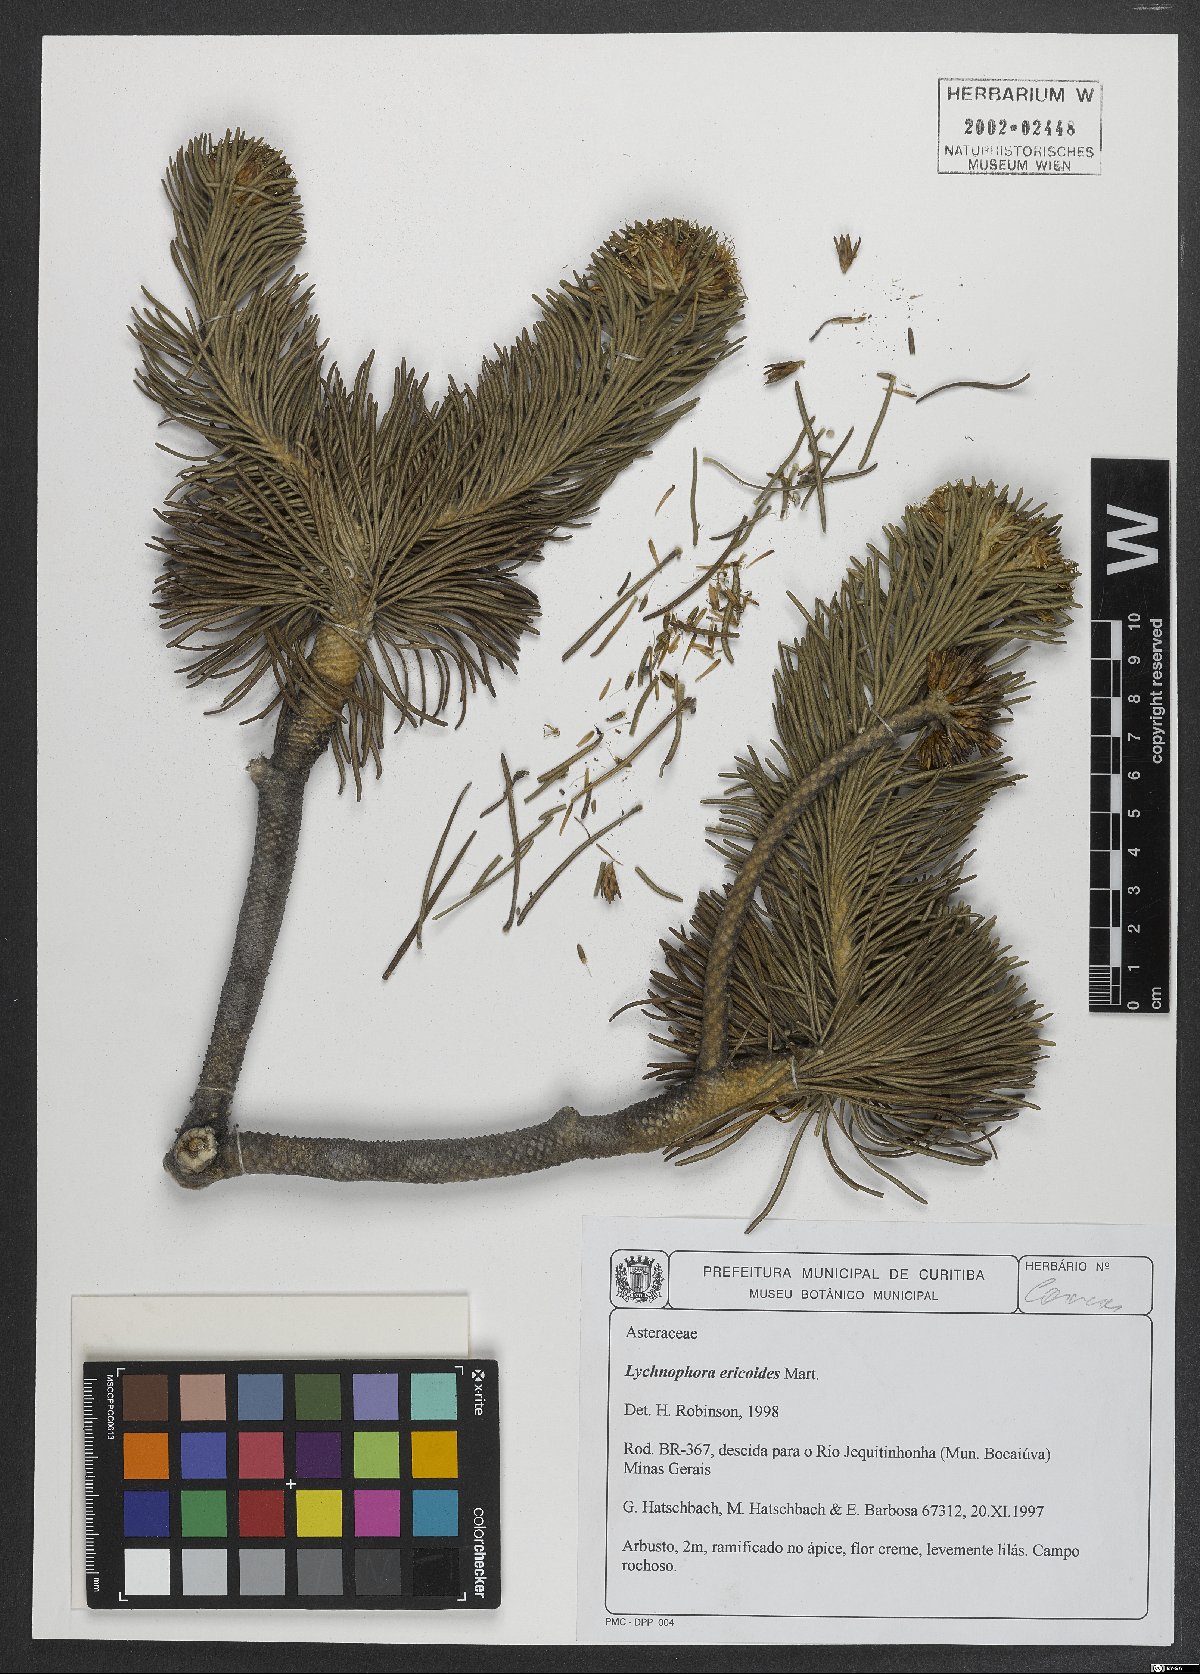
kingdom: Plantae
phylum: Tracheophyta
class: Magnoliopsida
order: Asterales
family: Asteraceae
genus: Lychnophora
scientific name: Lychnophora ericoides
